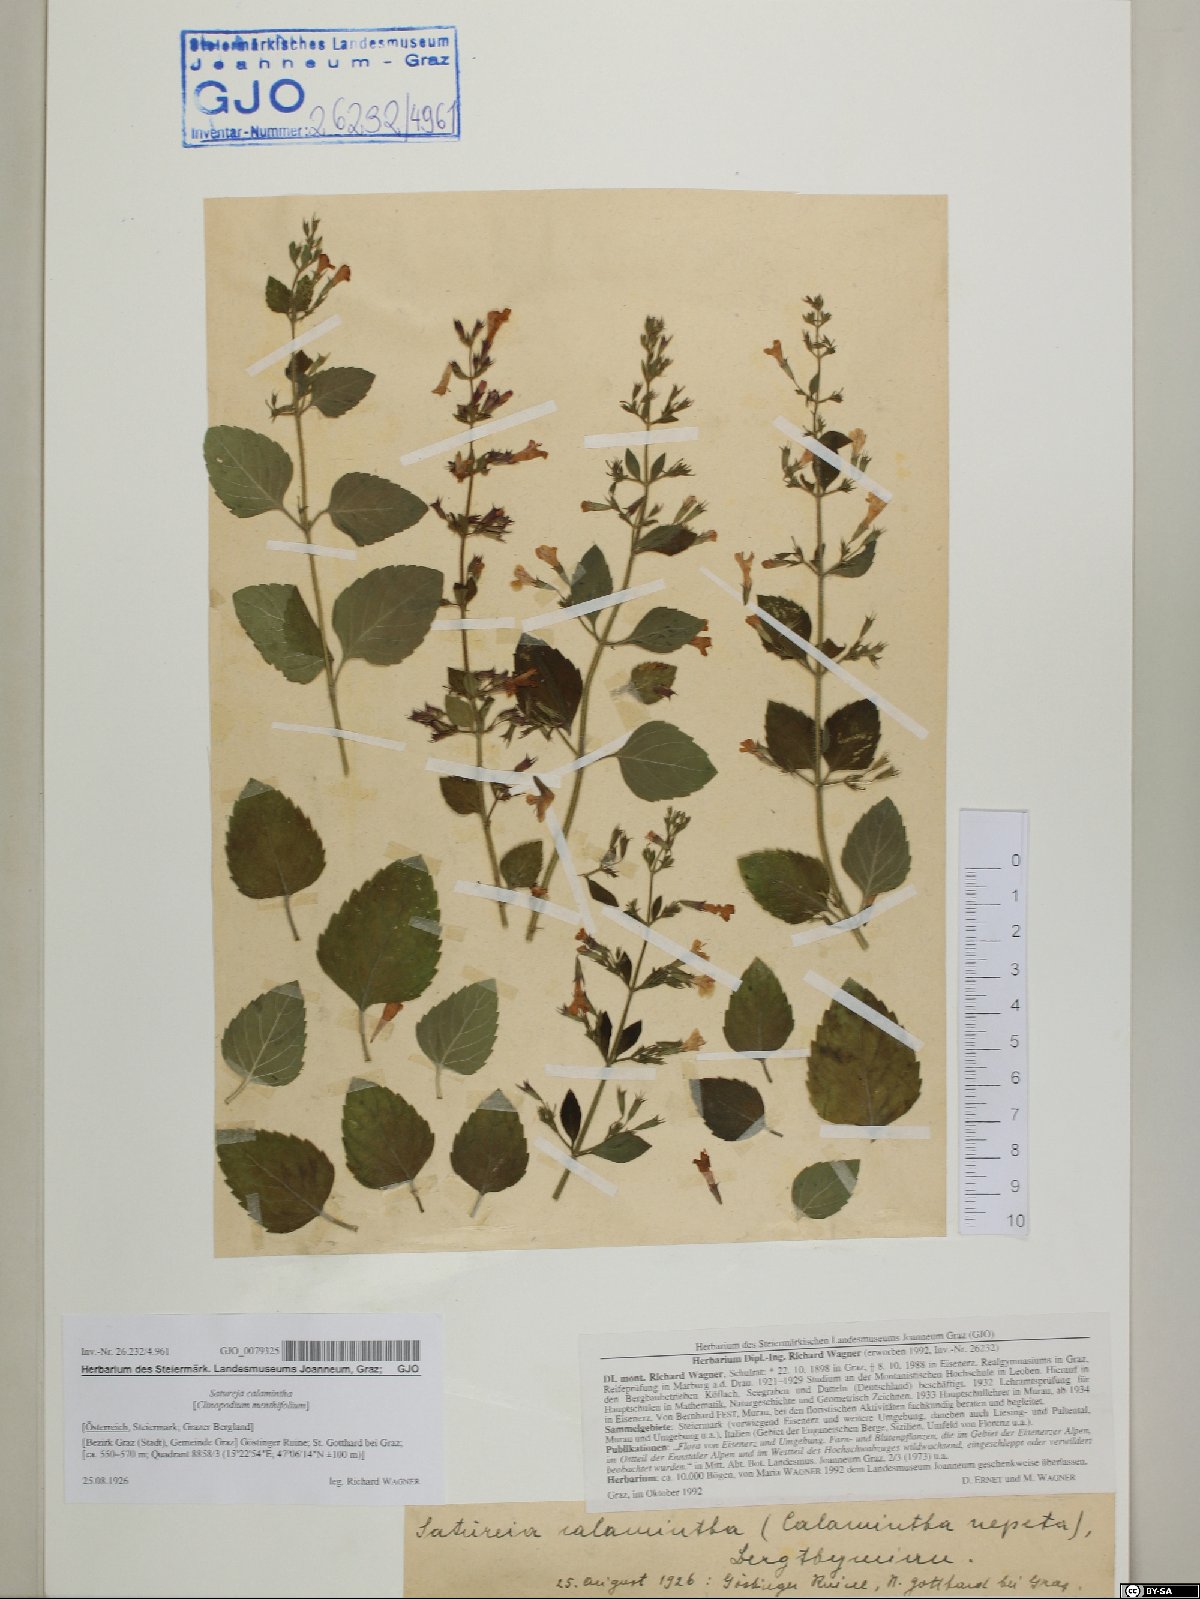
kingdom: Plantae
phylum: Tracheophyta
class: Magnoliopsida
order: Lamiales
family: Lamiaceae
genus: Clinopodium
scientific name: Clinopodium nepeta
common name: Lesser calamint
